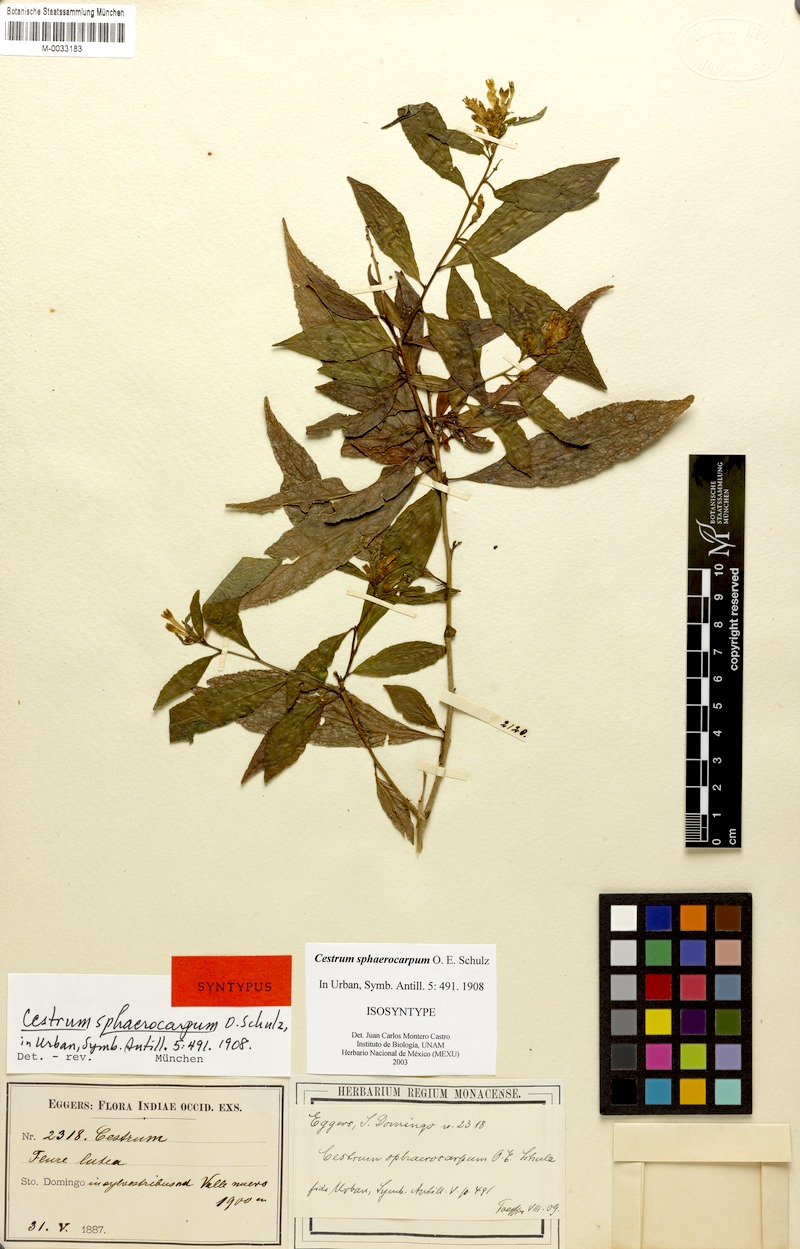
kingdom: Plantae
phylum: Tracheophyta
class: Magnoliopsida
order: Solanales
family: Solanaceae
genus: Cestrum
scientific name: Cestrum sphaerocarpum
